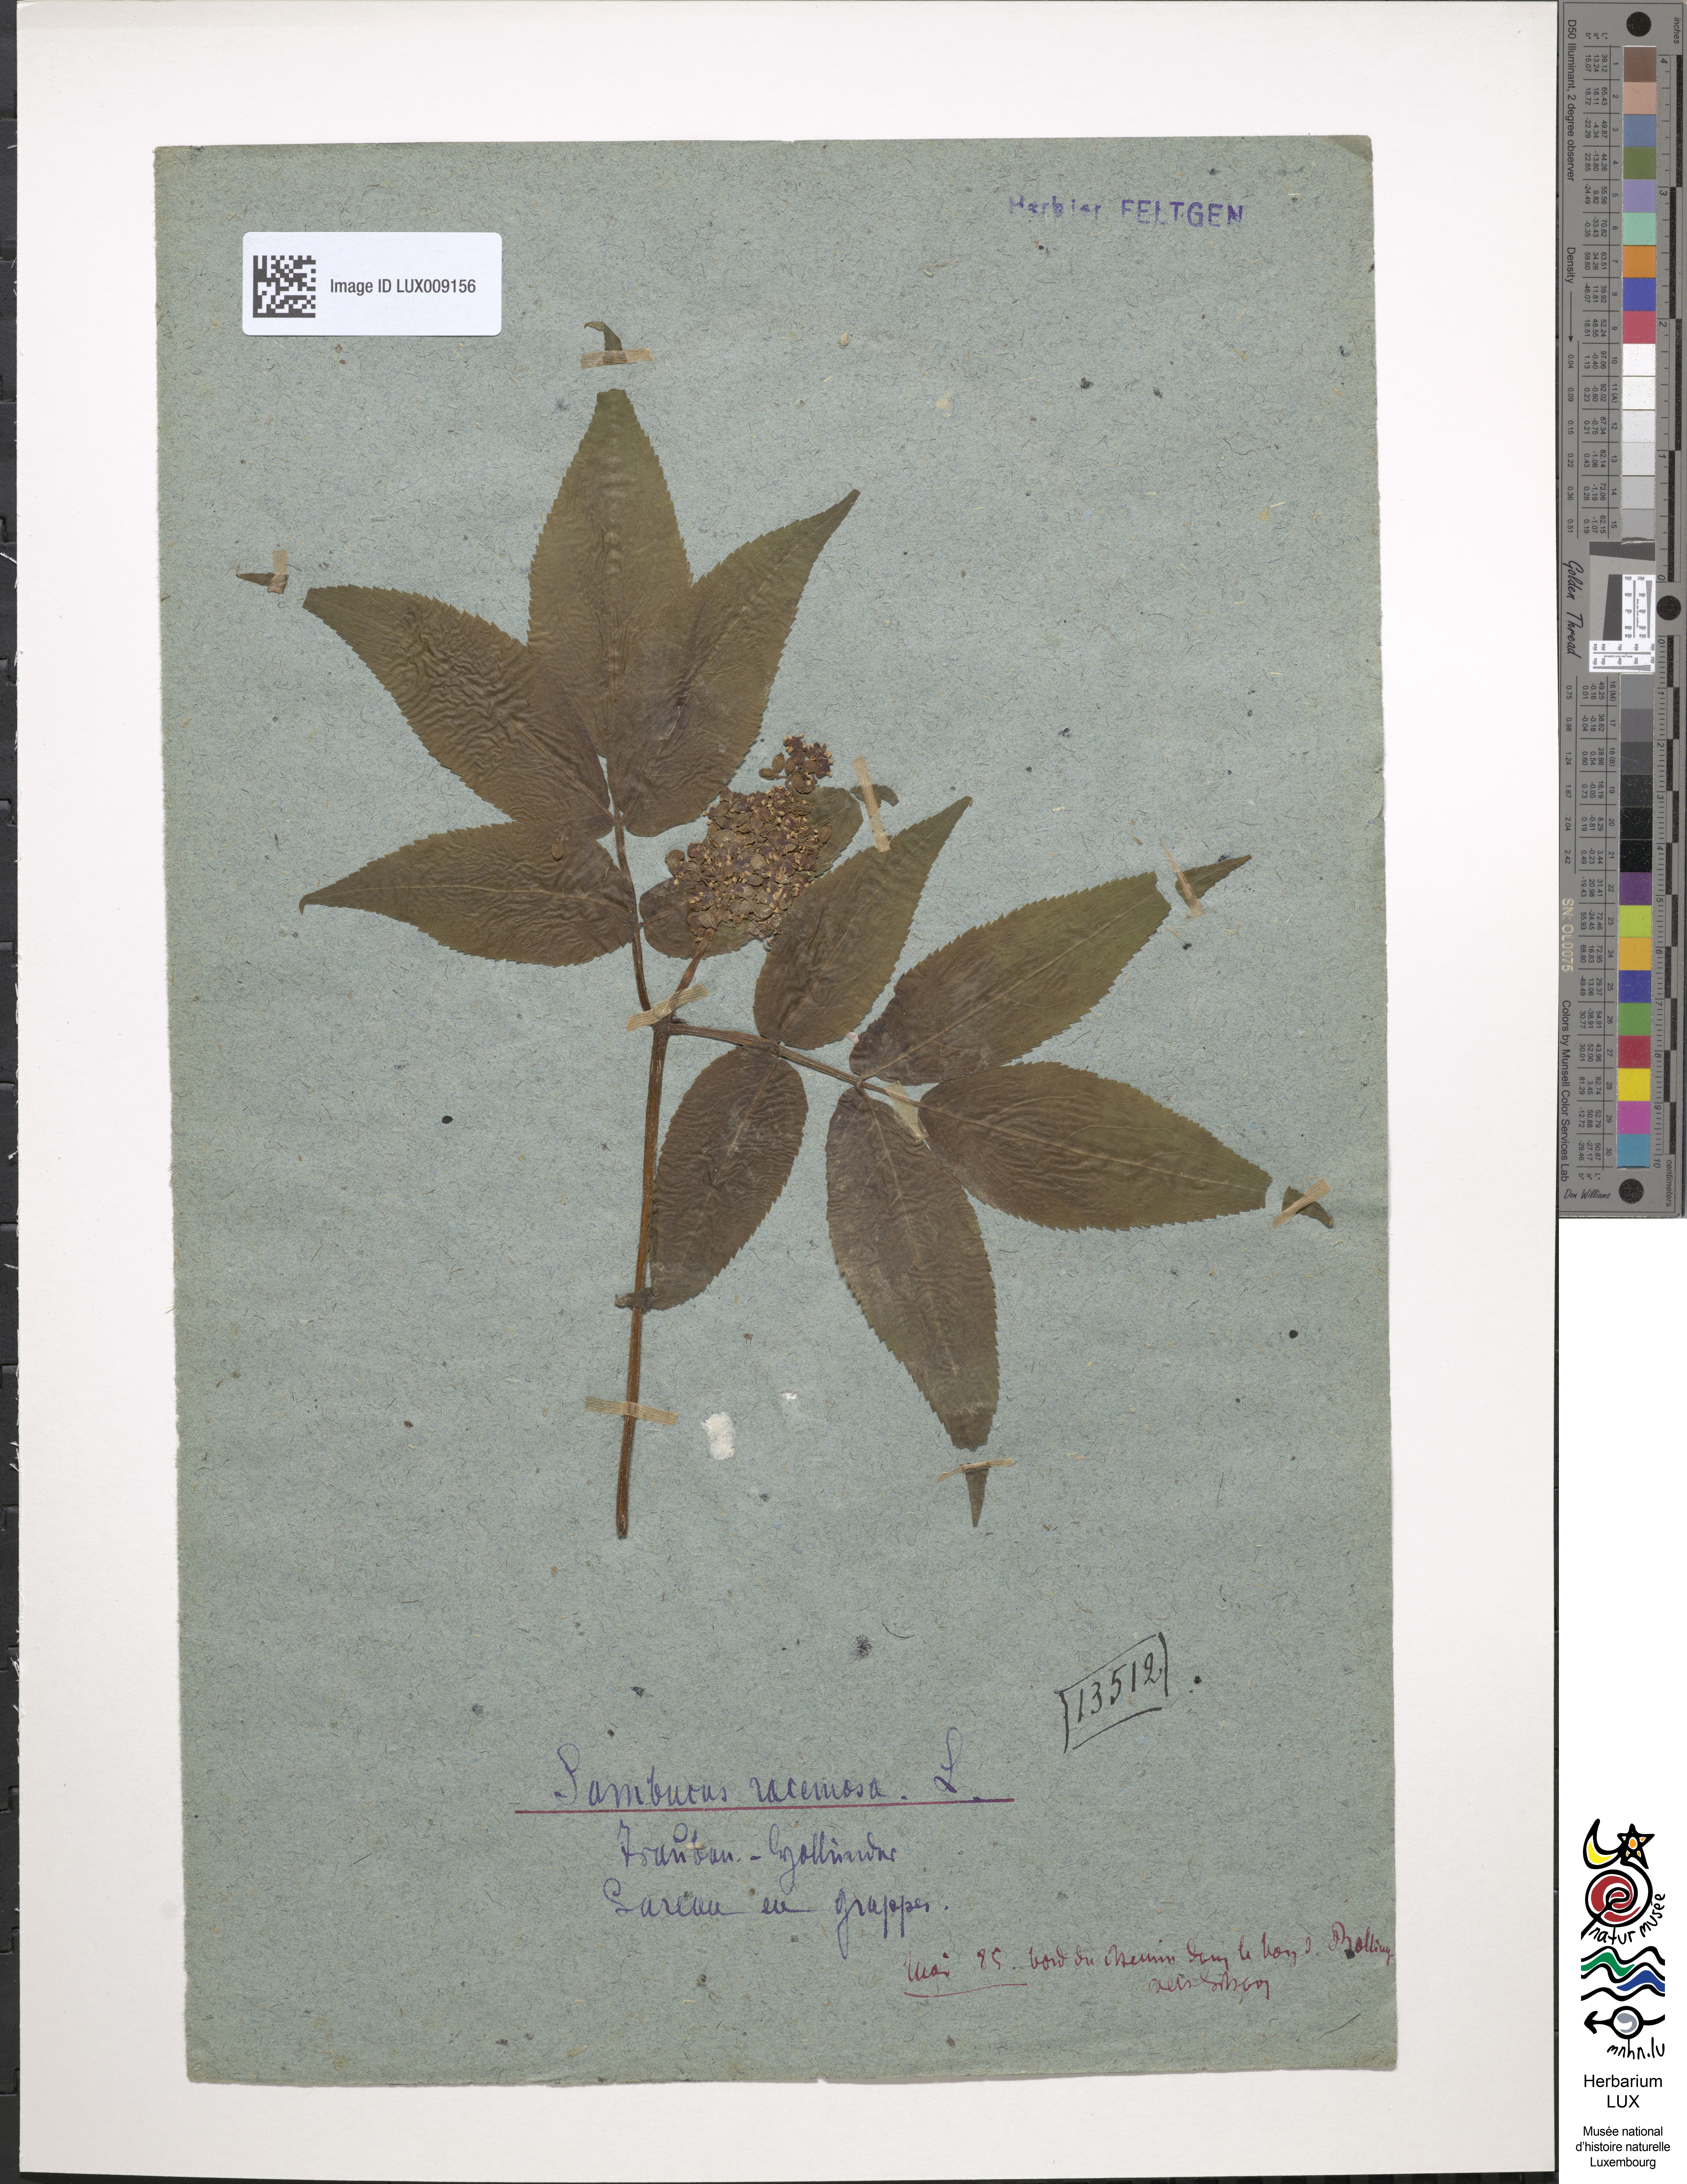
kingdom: Plantae
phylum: Tracheophyta
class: Magnoliopsida
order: Dipsacales
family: Viburnaceae
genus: Sambucus
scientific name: Sambucus racemosa
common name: Red-berried elder
